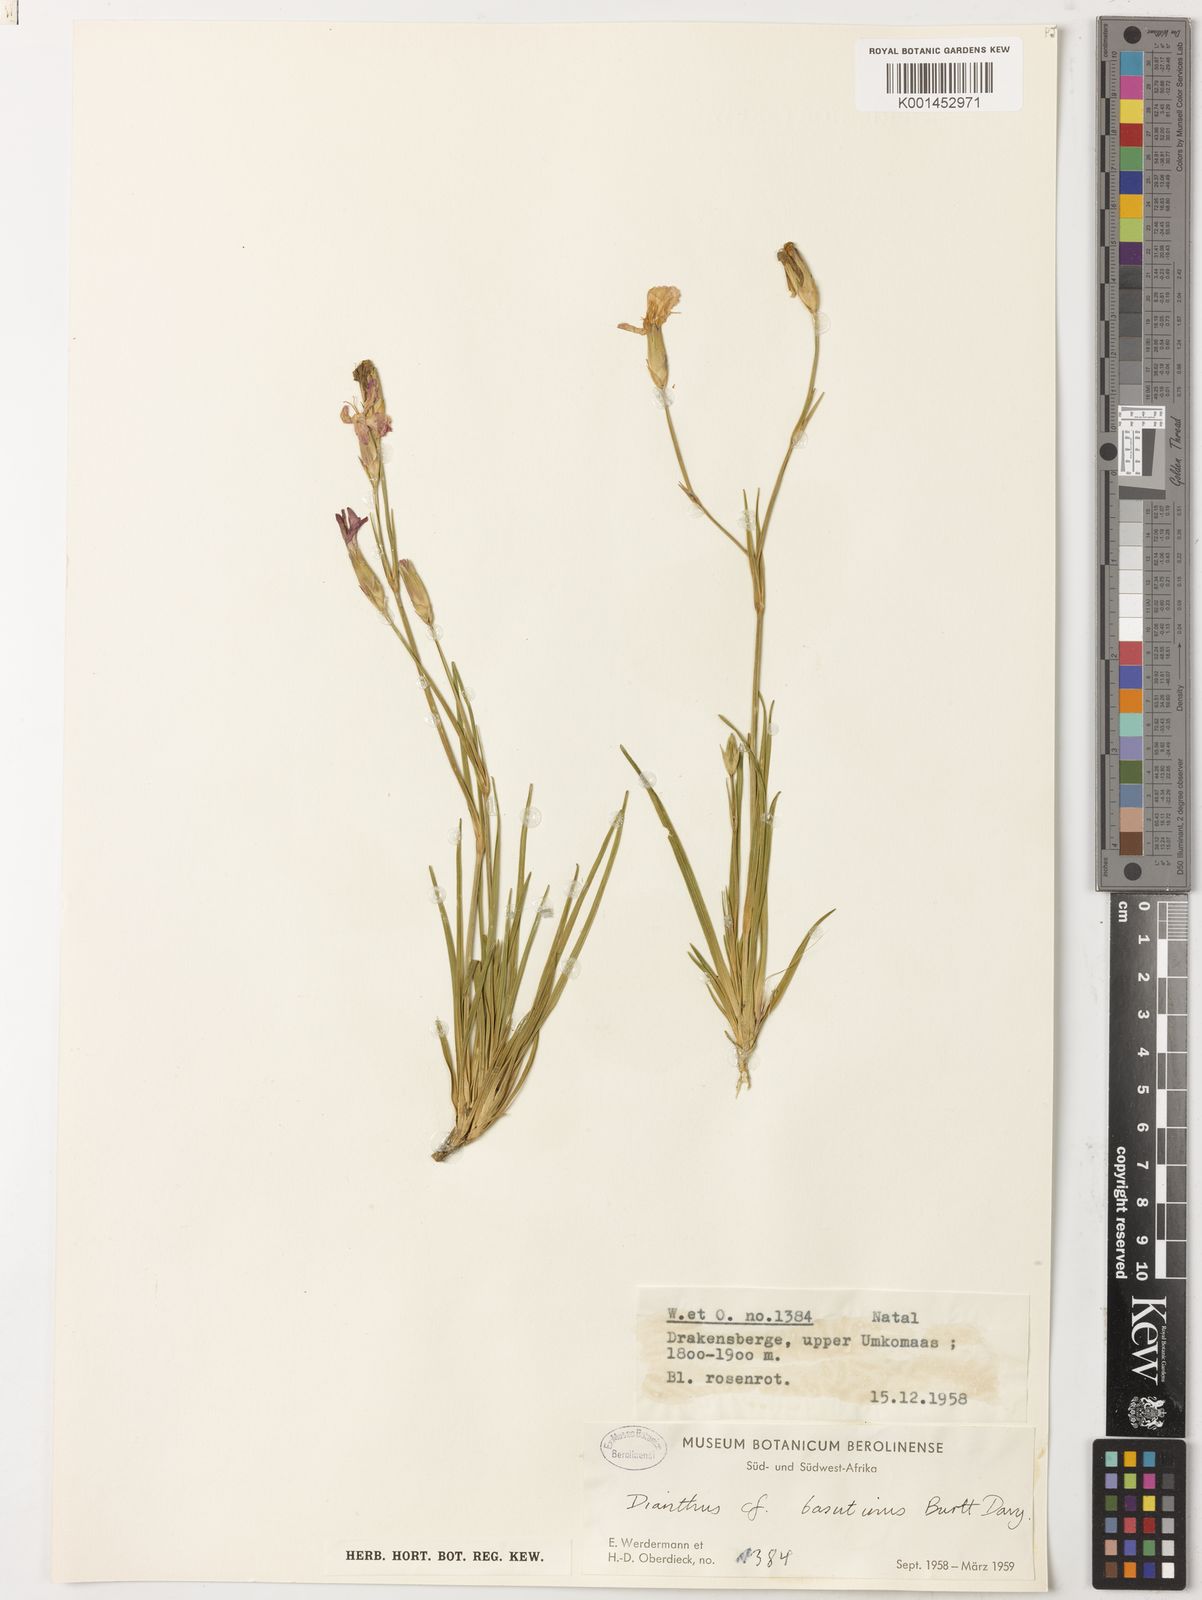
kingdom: Plantae
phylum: Tracheophyta
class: Magnoliopsida
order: Caryophyllales
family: Caryophyllaceae
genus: Dianthus
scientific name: Dianthus basuticus
